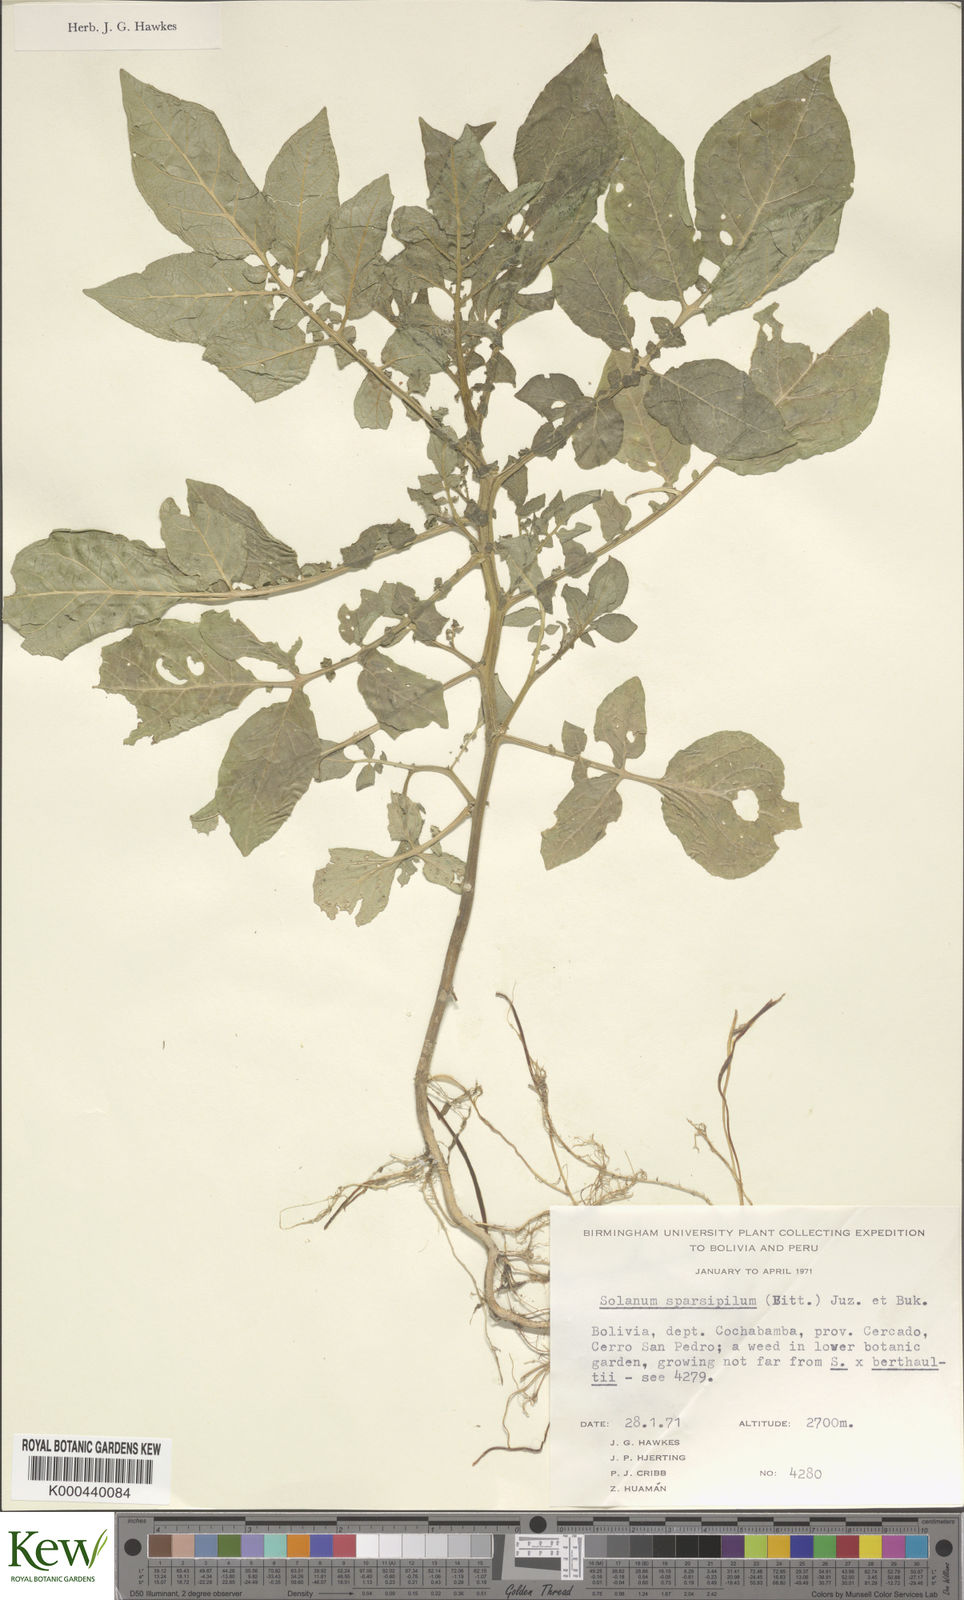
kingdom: Plantae
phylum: Tracheophyta
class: Magnoliopsida
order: Solanales
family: Solanaceae
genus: Solanum
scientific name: Solanum brevicaule
